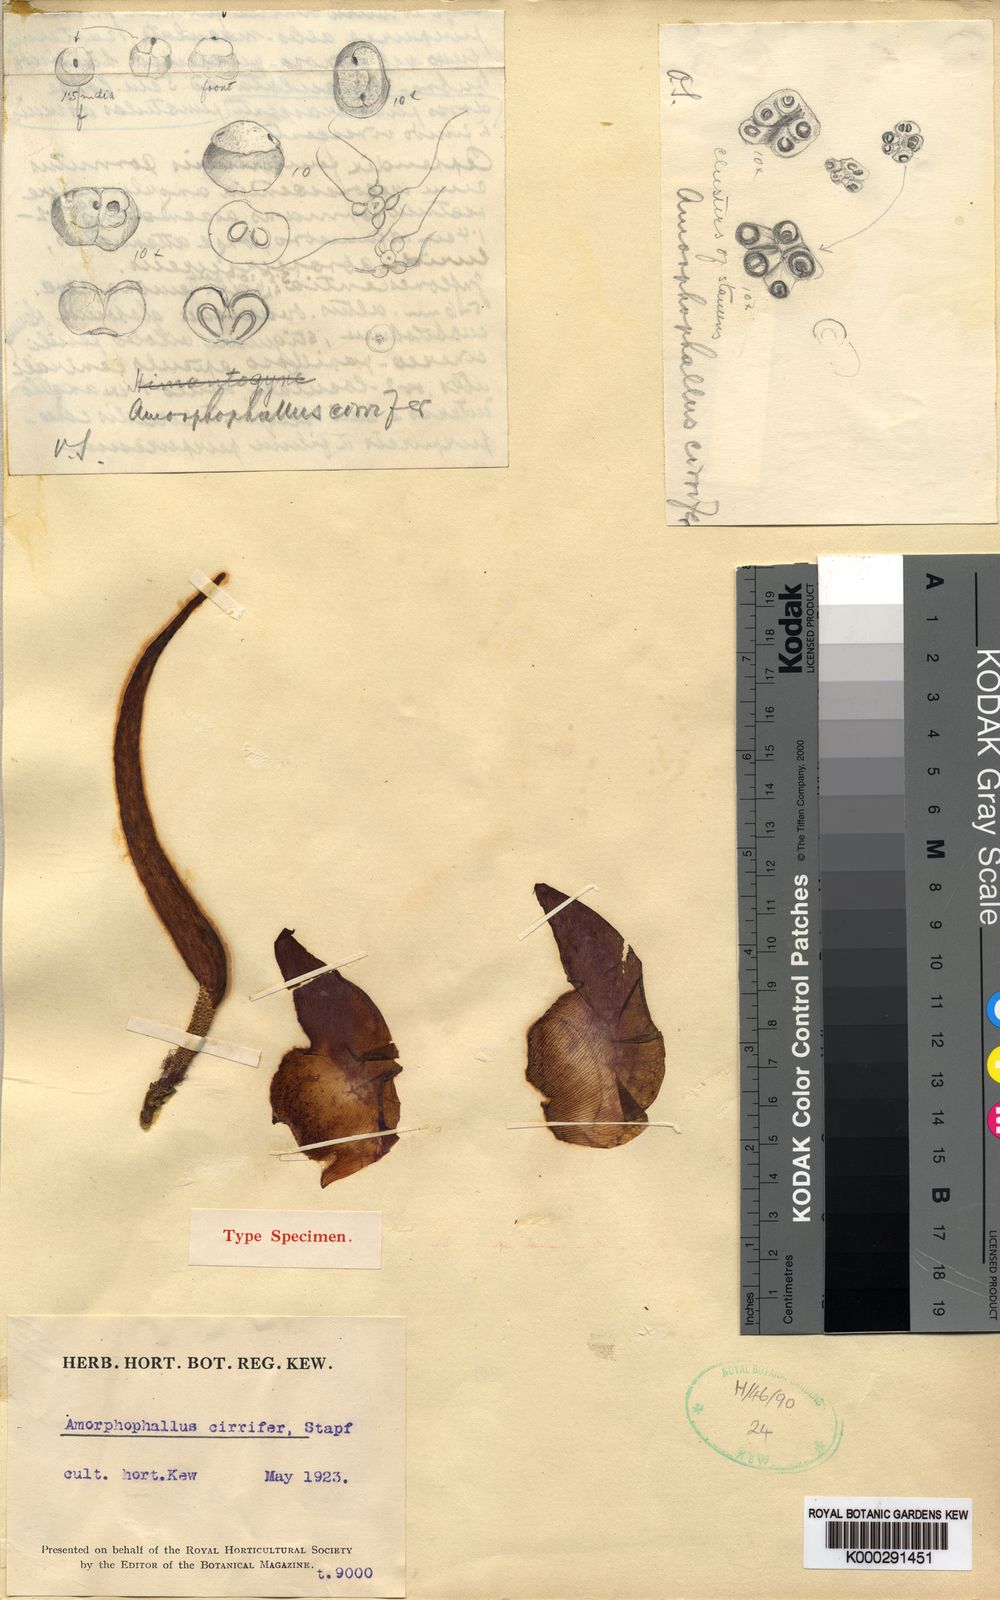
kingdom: Plantae
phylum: Tracheophyta
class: Liliopsida
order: Alismatales
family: Araceae
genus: Amorphophallus
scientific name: Amorphophallus cirrifer
